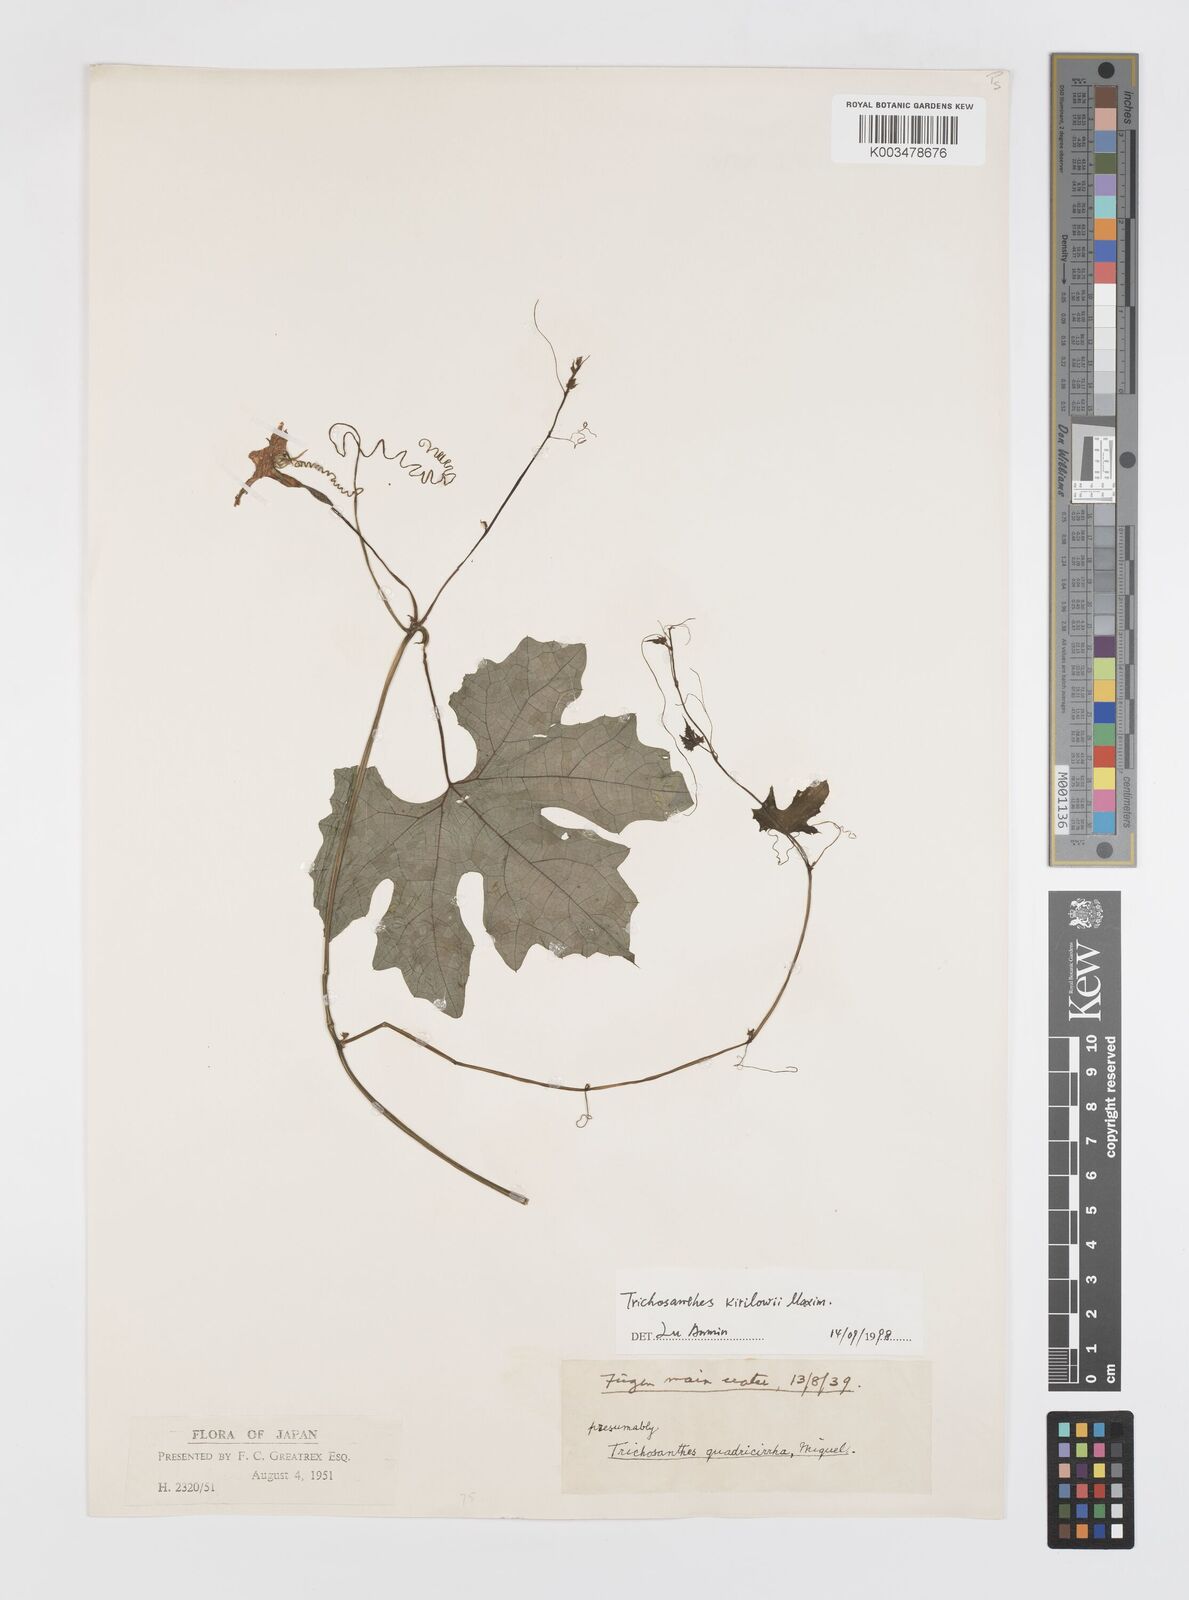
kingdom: Plantae
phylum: Tracheophyta
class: Magnoliopsida
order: Cucurbitales
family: Cucurbitaceae
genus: Trichosanthes
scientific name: Trichosanthes kirilowii
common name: Chinese-cucumber
